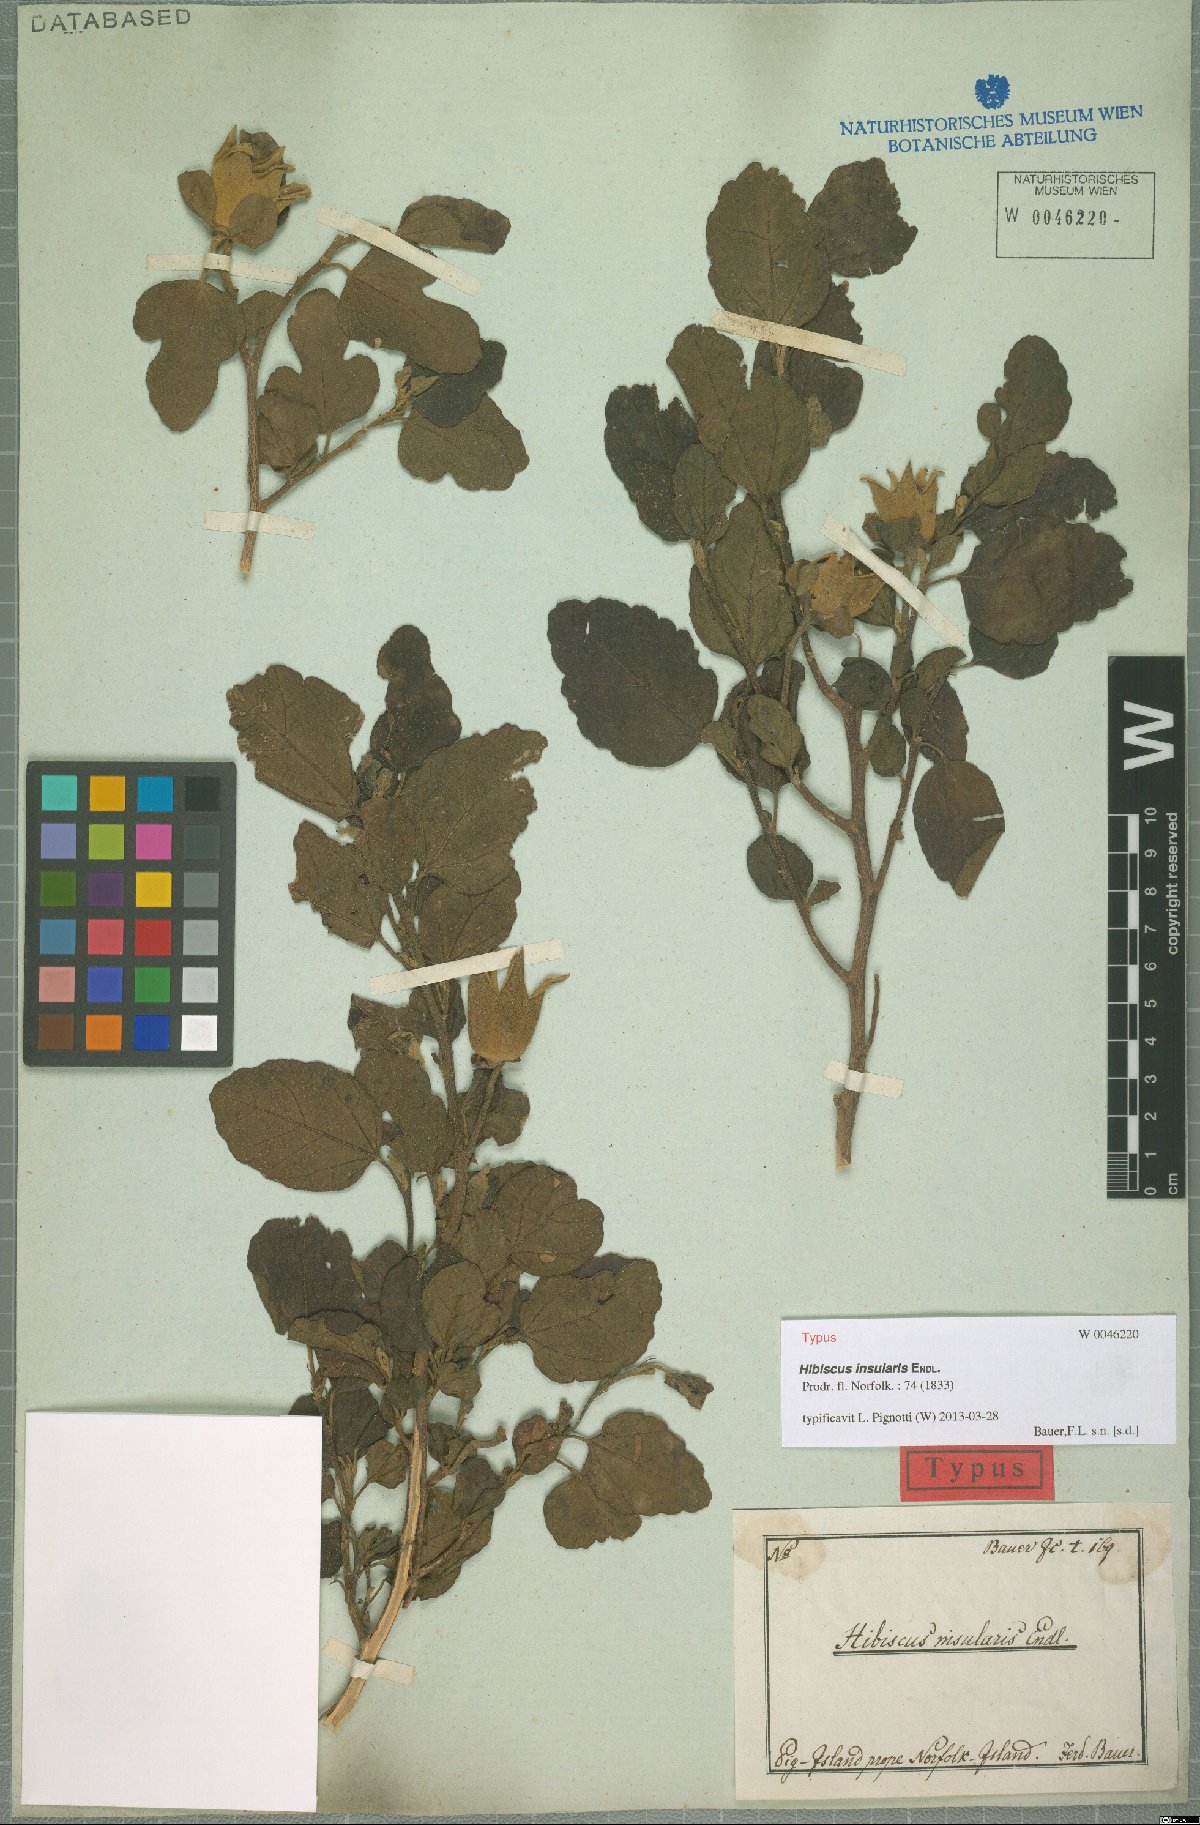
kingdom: Plantae
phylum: Tracheophyta
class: Magnoliopsida
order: Malvales
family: Malvaceae
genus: Hibiscus
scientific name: Hibiscus insularis
